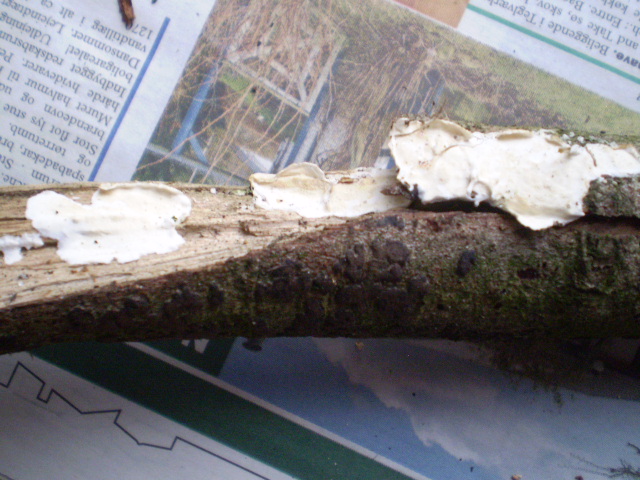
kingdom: Fungi
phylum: Basidiomycota
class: Agaricomycetes
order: Polyporales
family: Irpicaceae
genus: Byssomerulius
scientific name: Byssomerulius corium
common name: læder-åresvamp
